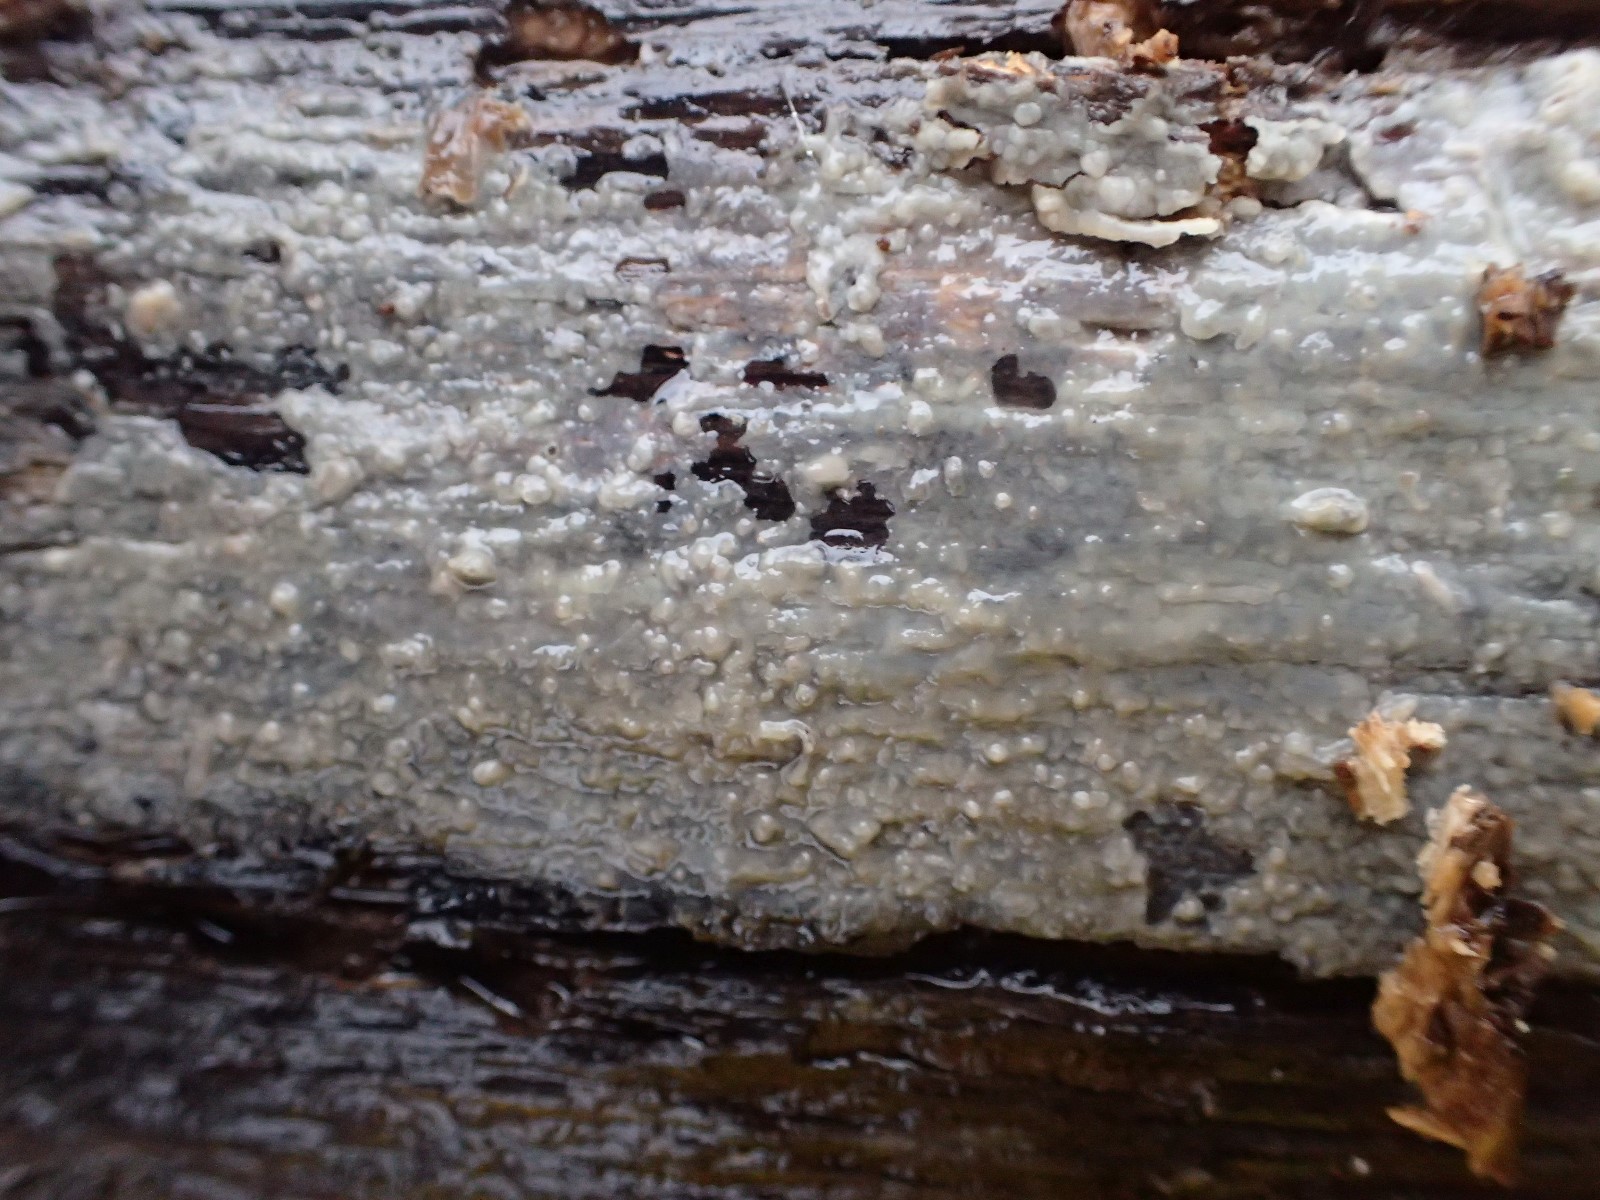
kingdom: Fungi
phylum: Basidiomycota
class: Agaricomycetes
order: Agaricales
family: Radulomycetaceae
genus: Radulomyces
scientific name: Radulomyces confluens
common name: glat naftalinskind
